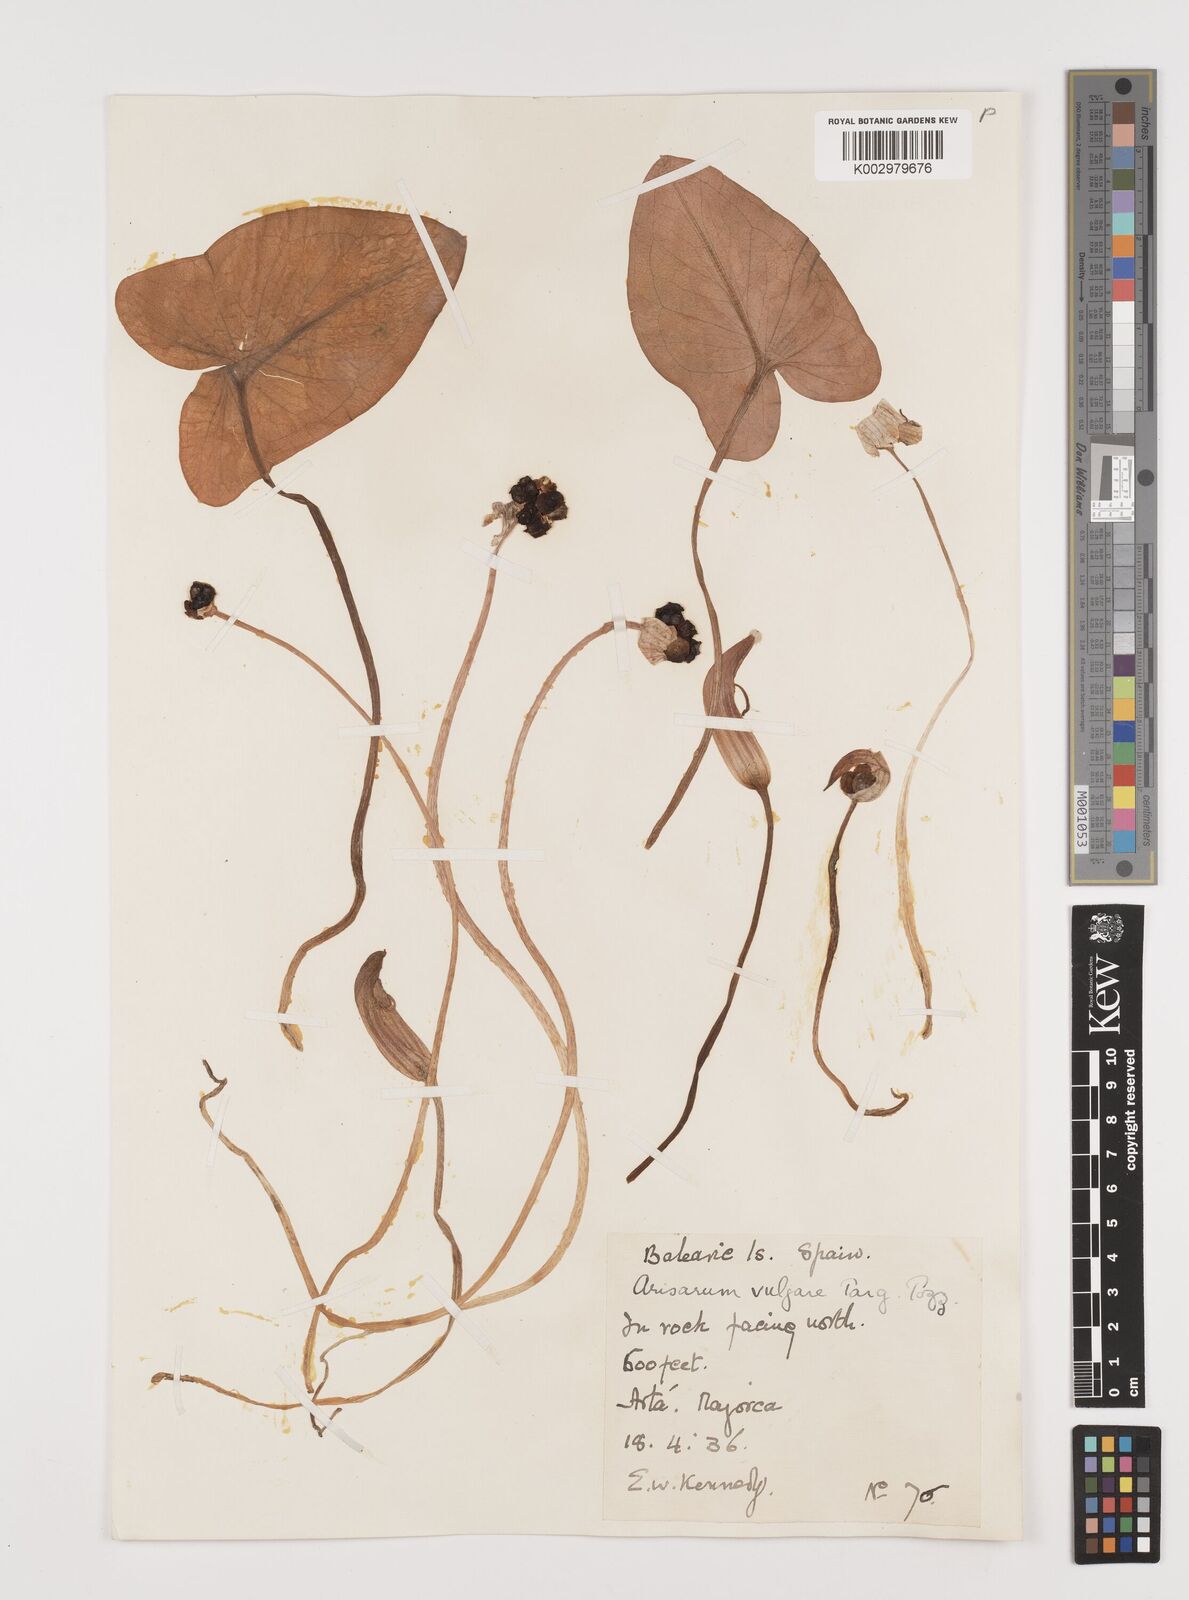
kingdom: Plantae
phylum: Tracheophyta
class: Liliopsida
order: Alismatales
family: Araceae
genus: Arisarum
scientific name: Arisarum vulgare
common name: Common arisarum
